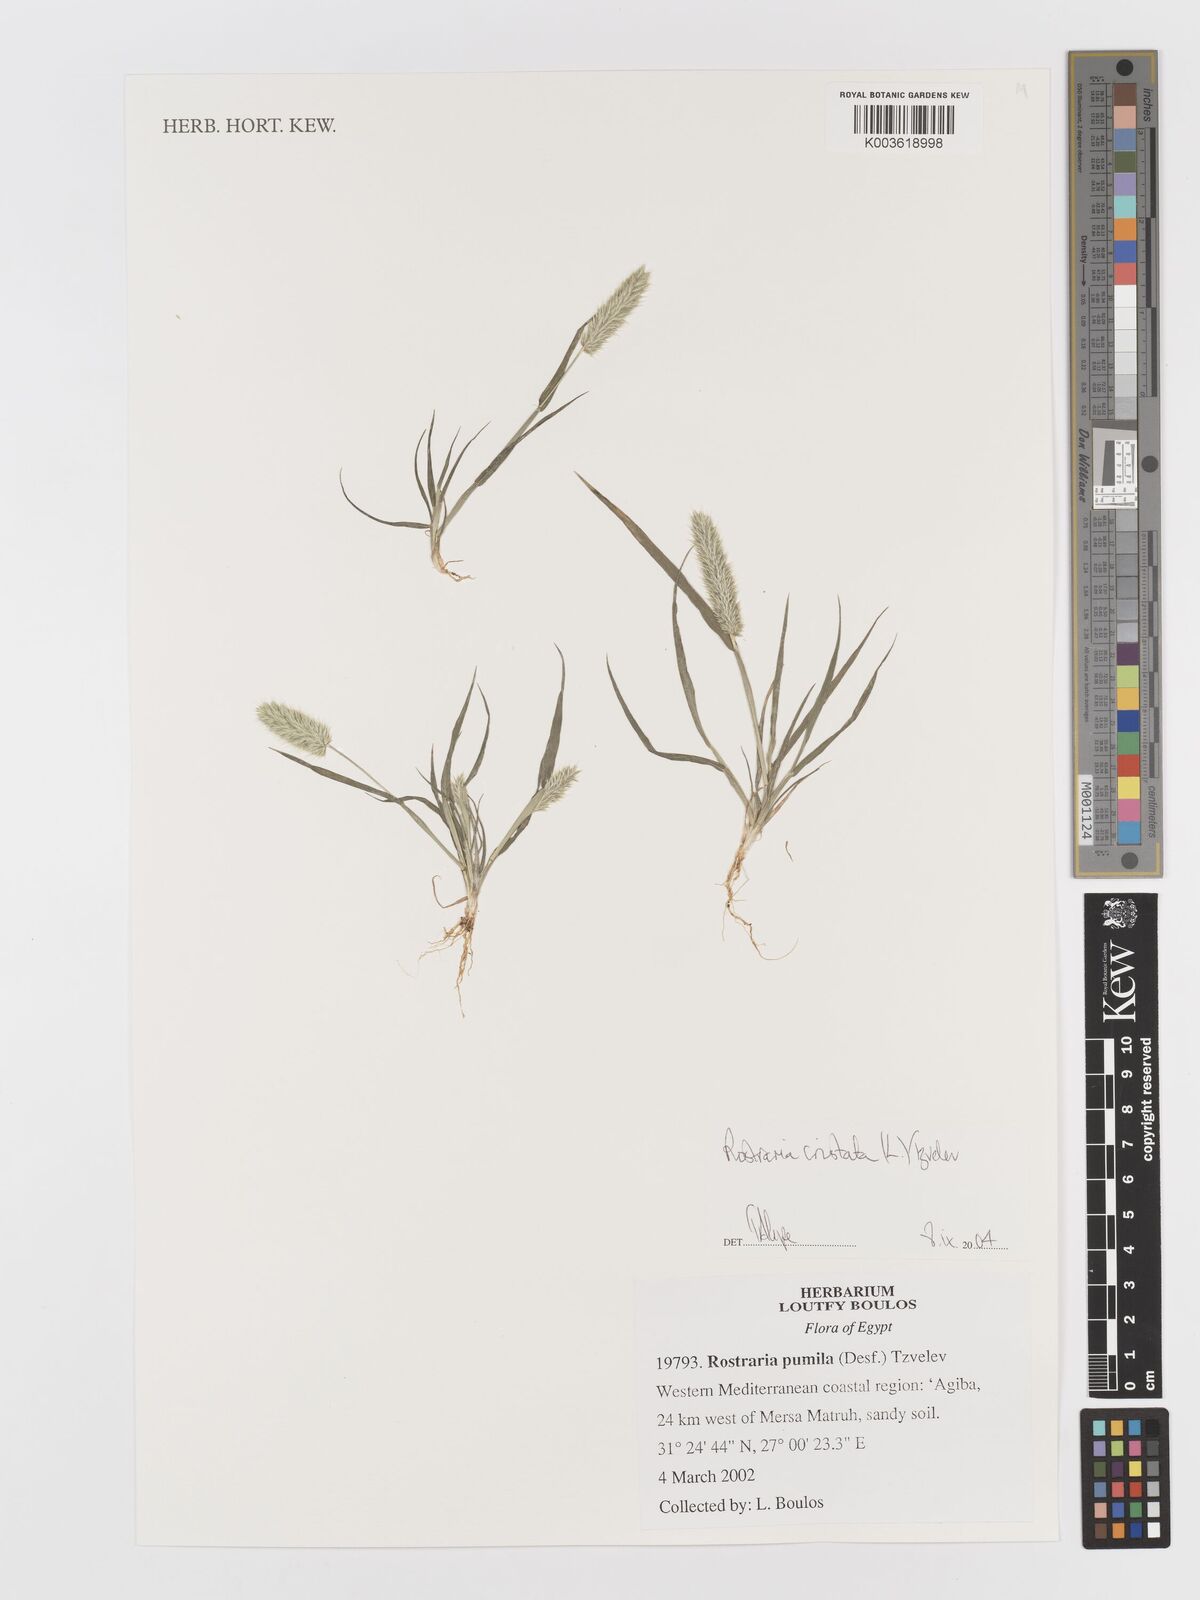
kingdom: Plantae
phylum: Tracheophyta
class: Liliopsida
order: Poales
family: Poaceae
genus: Rostraria
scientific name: Rostraria cristata
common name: Mediterranean hair-grass
